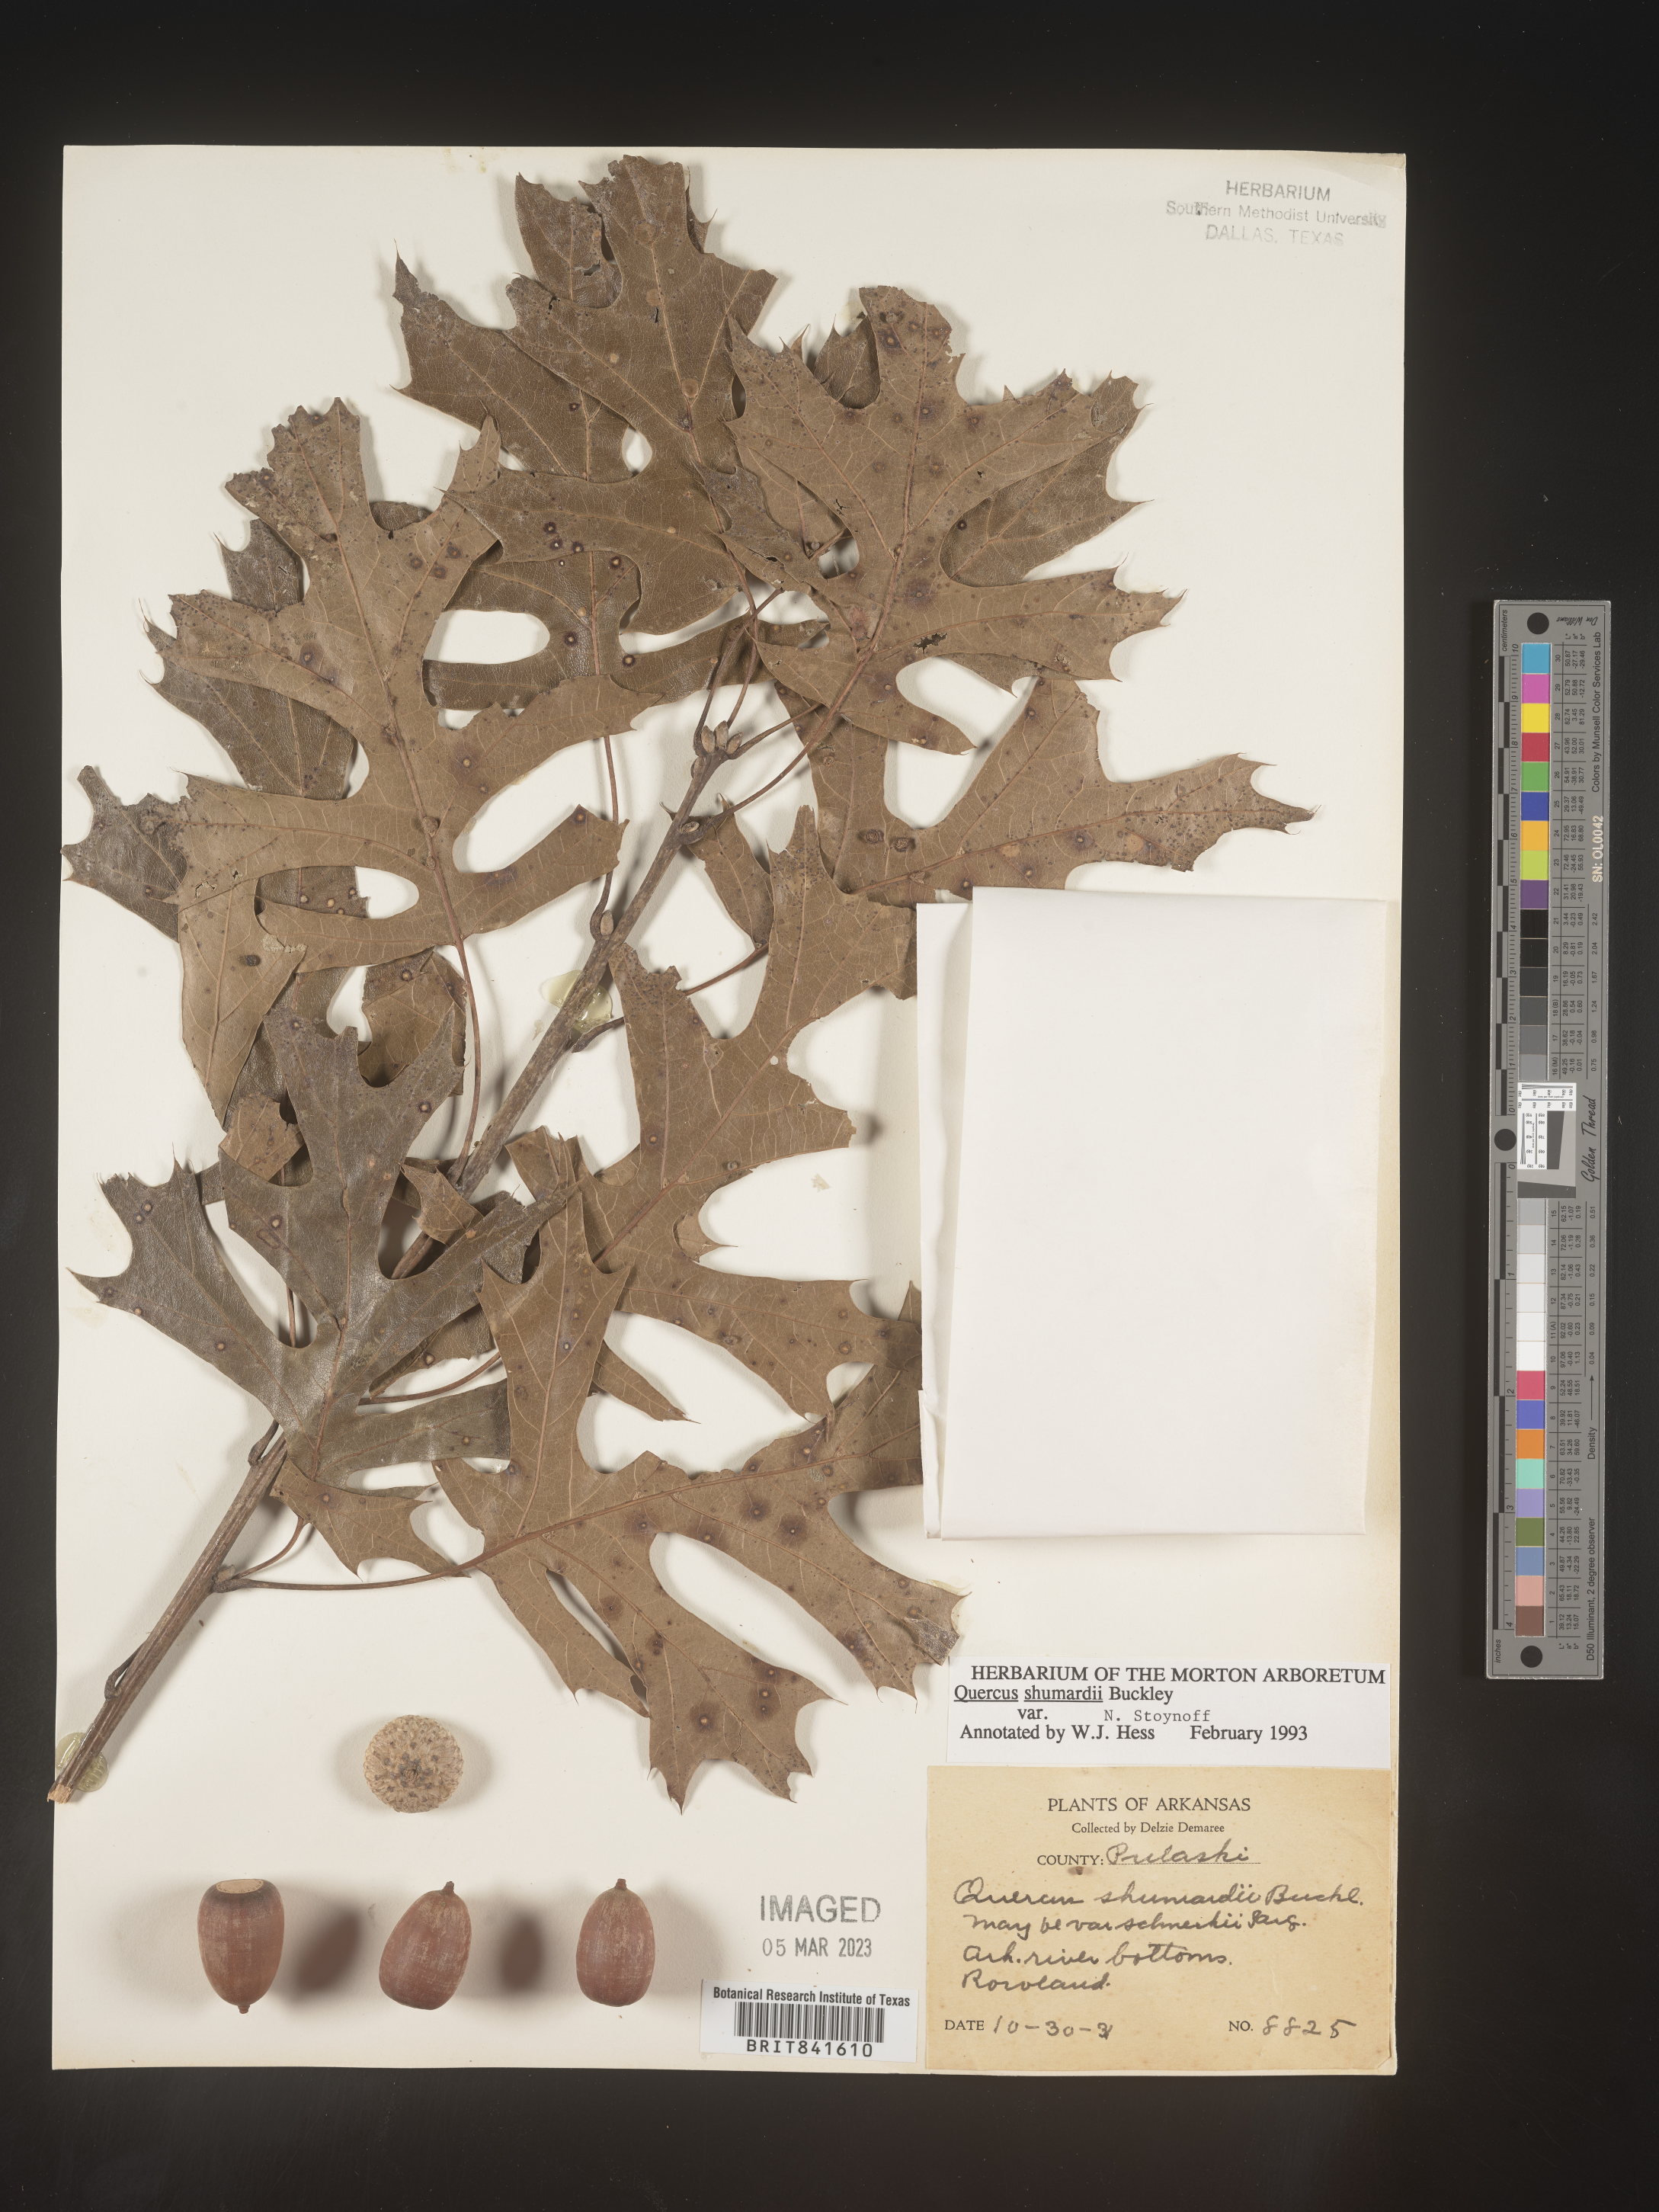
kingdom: Plantae
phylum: Tracheophyta
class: Magnoliopsida
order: Fagales
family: Fagaceae
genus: Quercus
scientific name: Quercus shumardii
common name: Shumard oak
